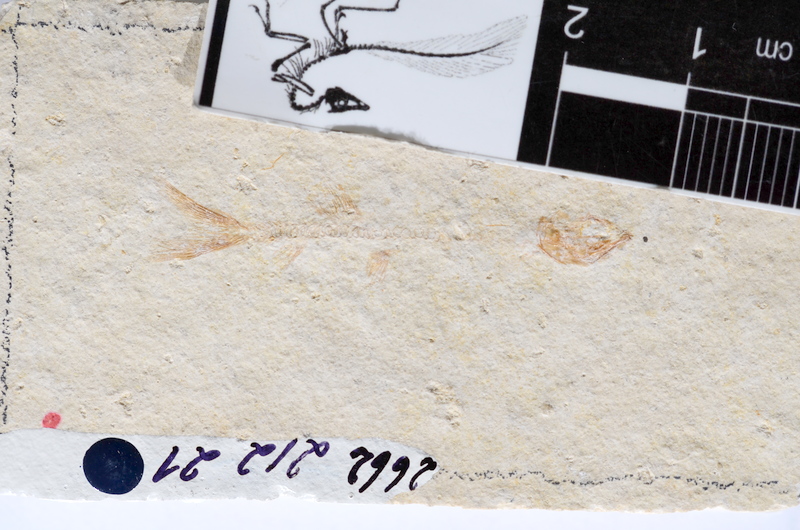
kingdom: Animalia
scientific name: Animalia
